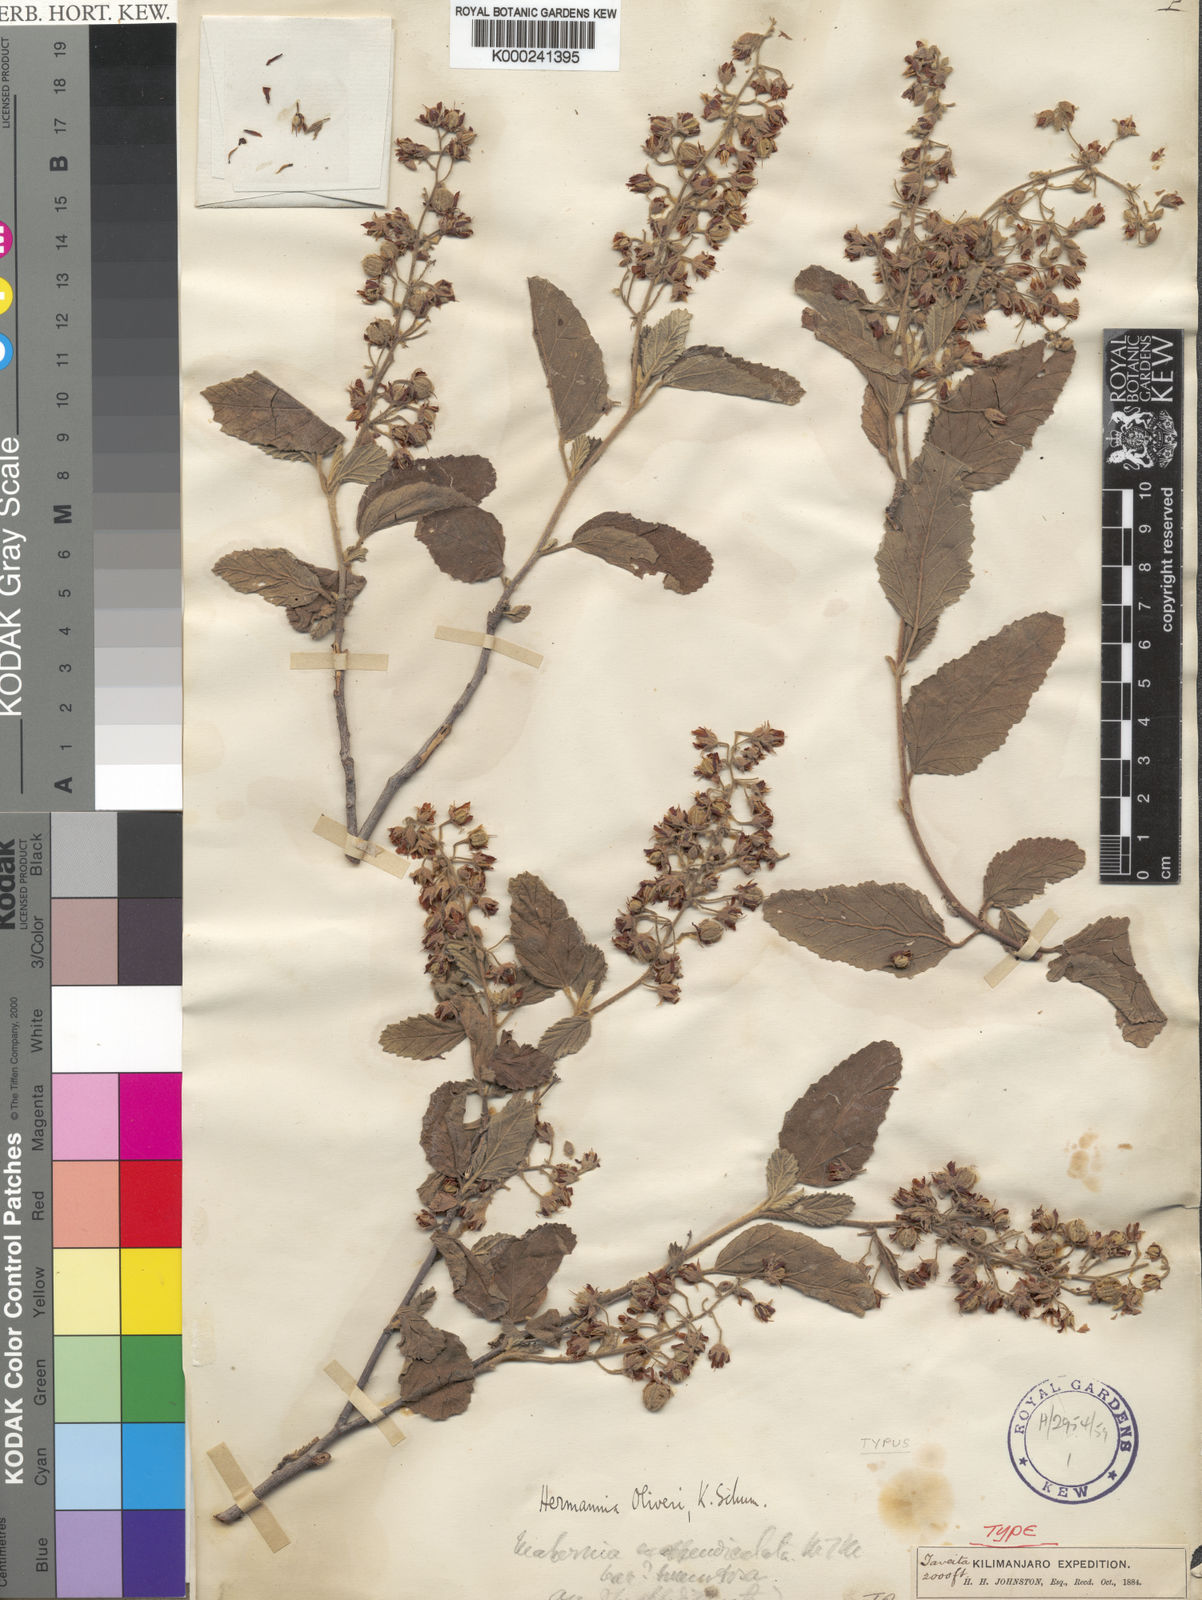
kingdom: Plantae
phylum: Tracheophyta
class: Magnoliopsida
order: Malvales
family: Malvaceae
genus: Hermannia
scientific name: Hermannia oliveri
